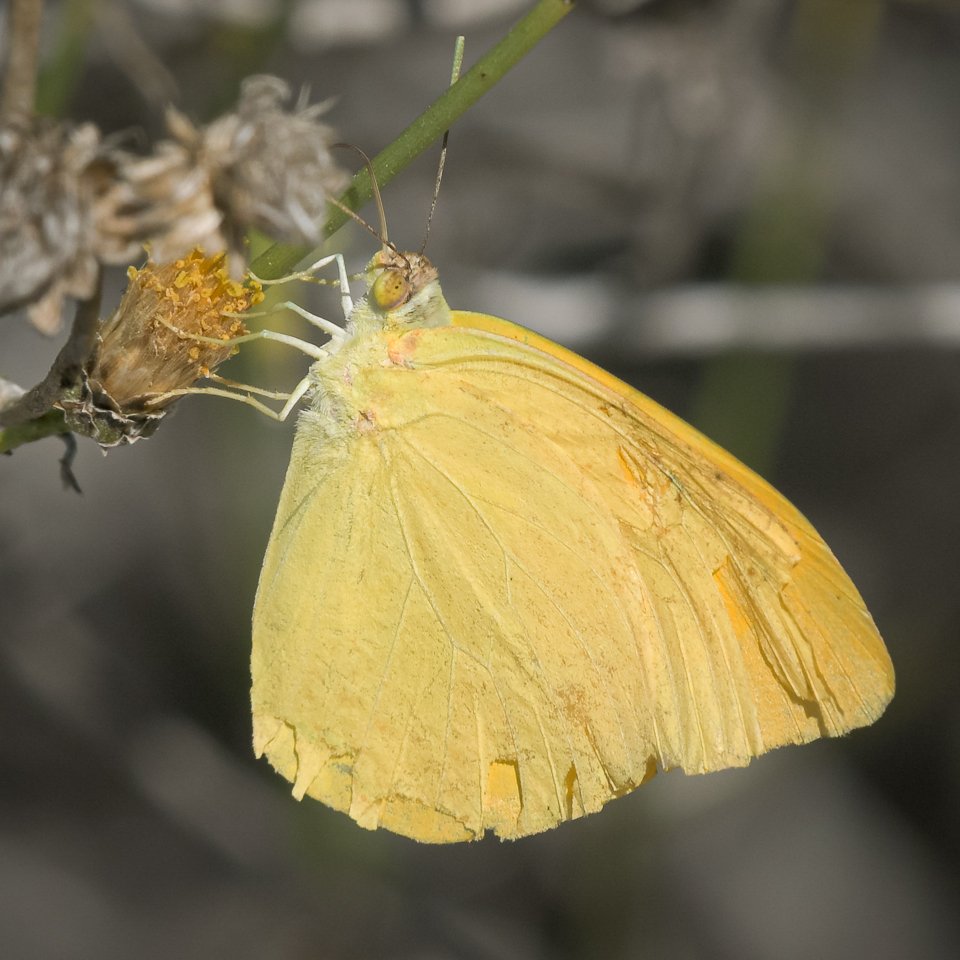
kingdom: Animalia
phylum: Arthropoda
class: Insecta
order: Lepidoptera
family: Pieridae
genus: Phoebis
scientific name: Phoebis agarithe
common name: Large Orange Sulphur
